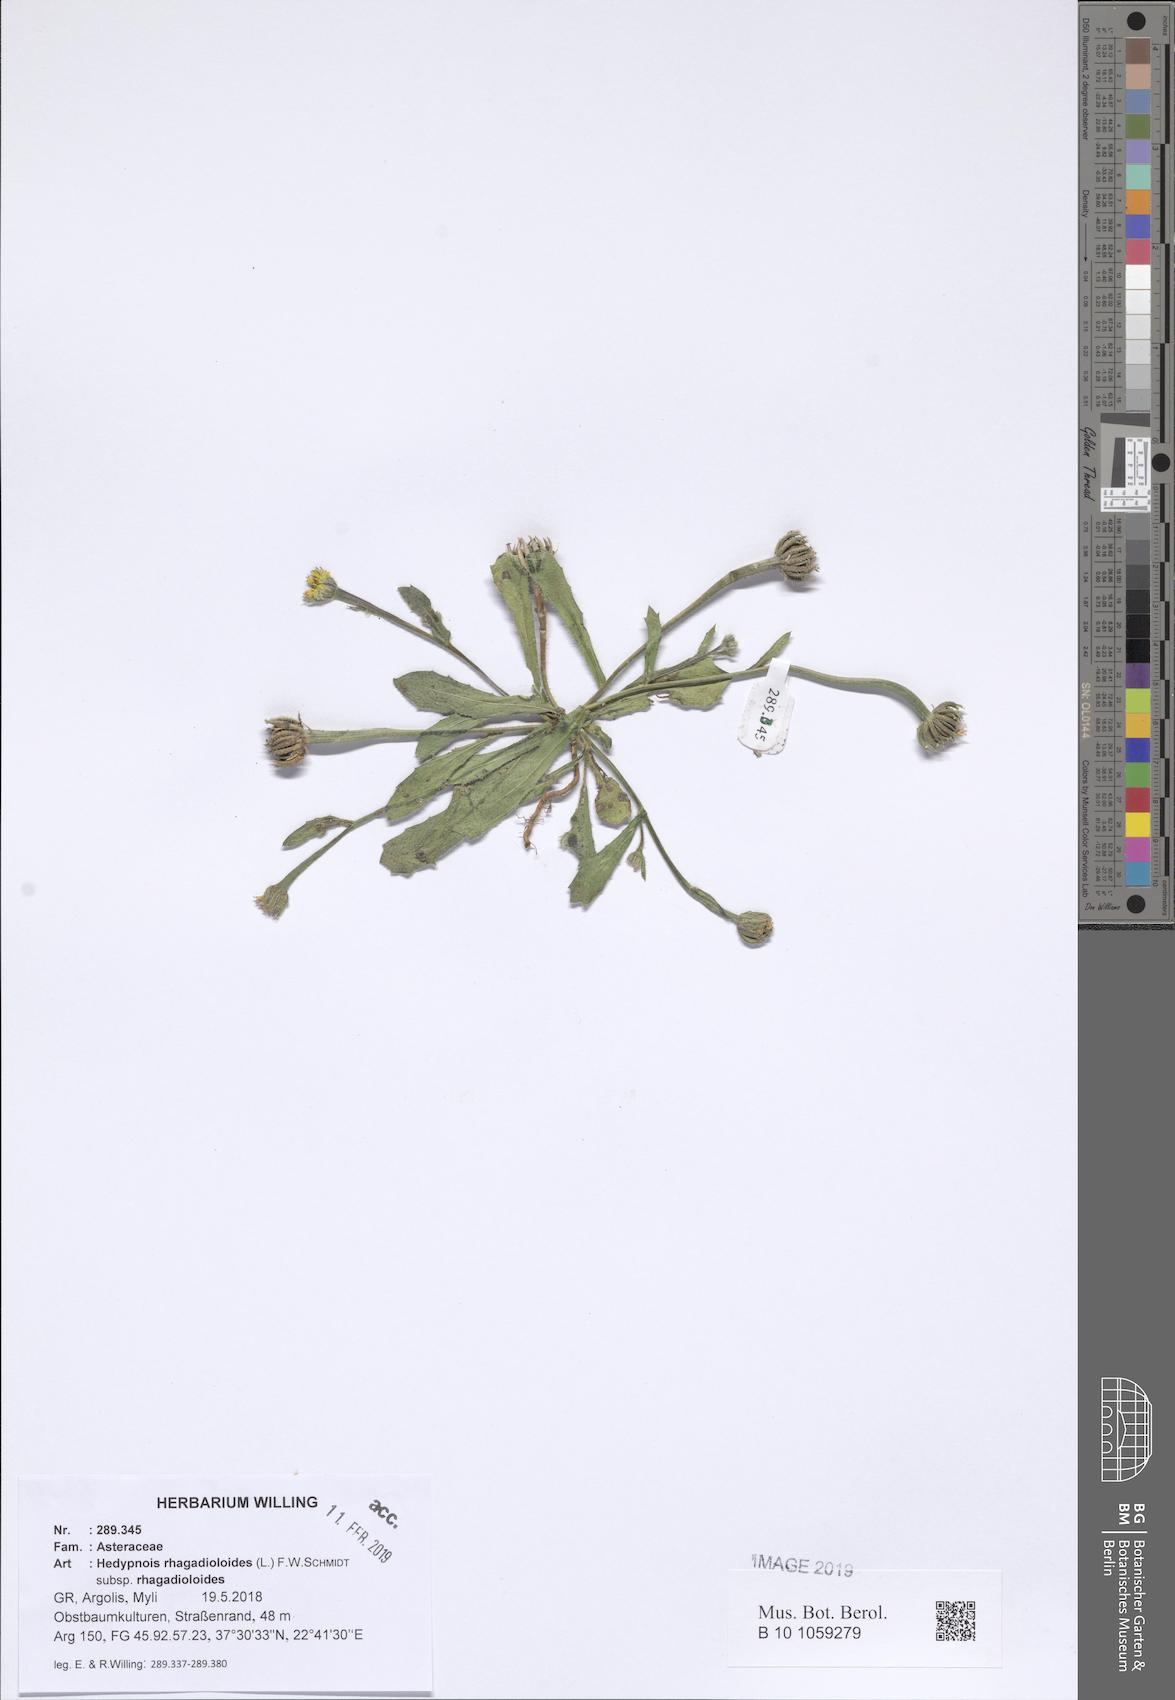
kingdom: Plantae
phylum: Tracheophyta
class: Magnoliopsida
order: Asterales
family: Asteraceae
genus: Hedypnois
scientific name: Hedypnois rhagadioloides
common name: Cretan weed
